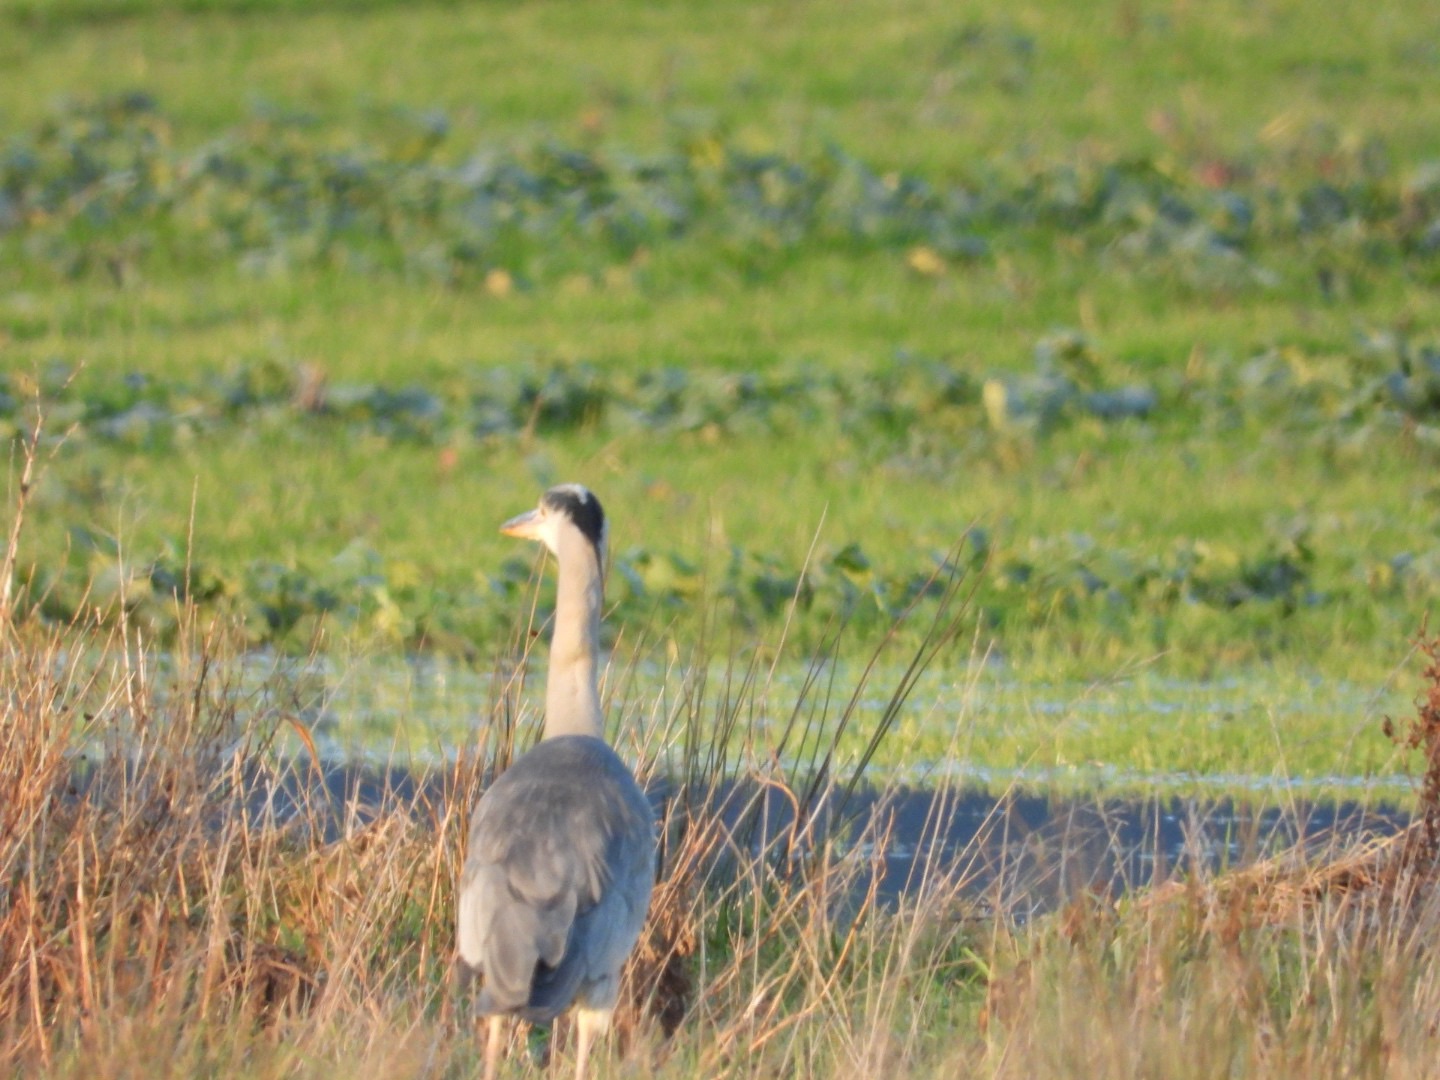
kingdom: Animalia
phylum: Chordata
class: Aves
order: Pelecaniformes
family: Ardeidae
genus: Ardea
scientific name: Ardea cinerea
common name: Fiskehejre
